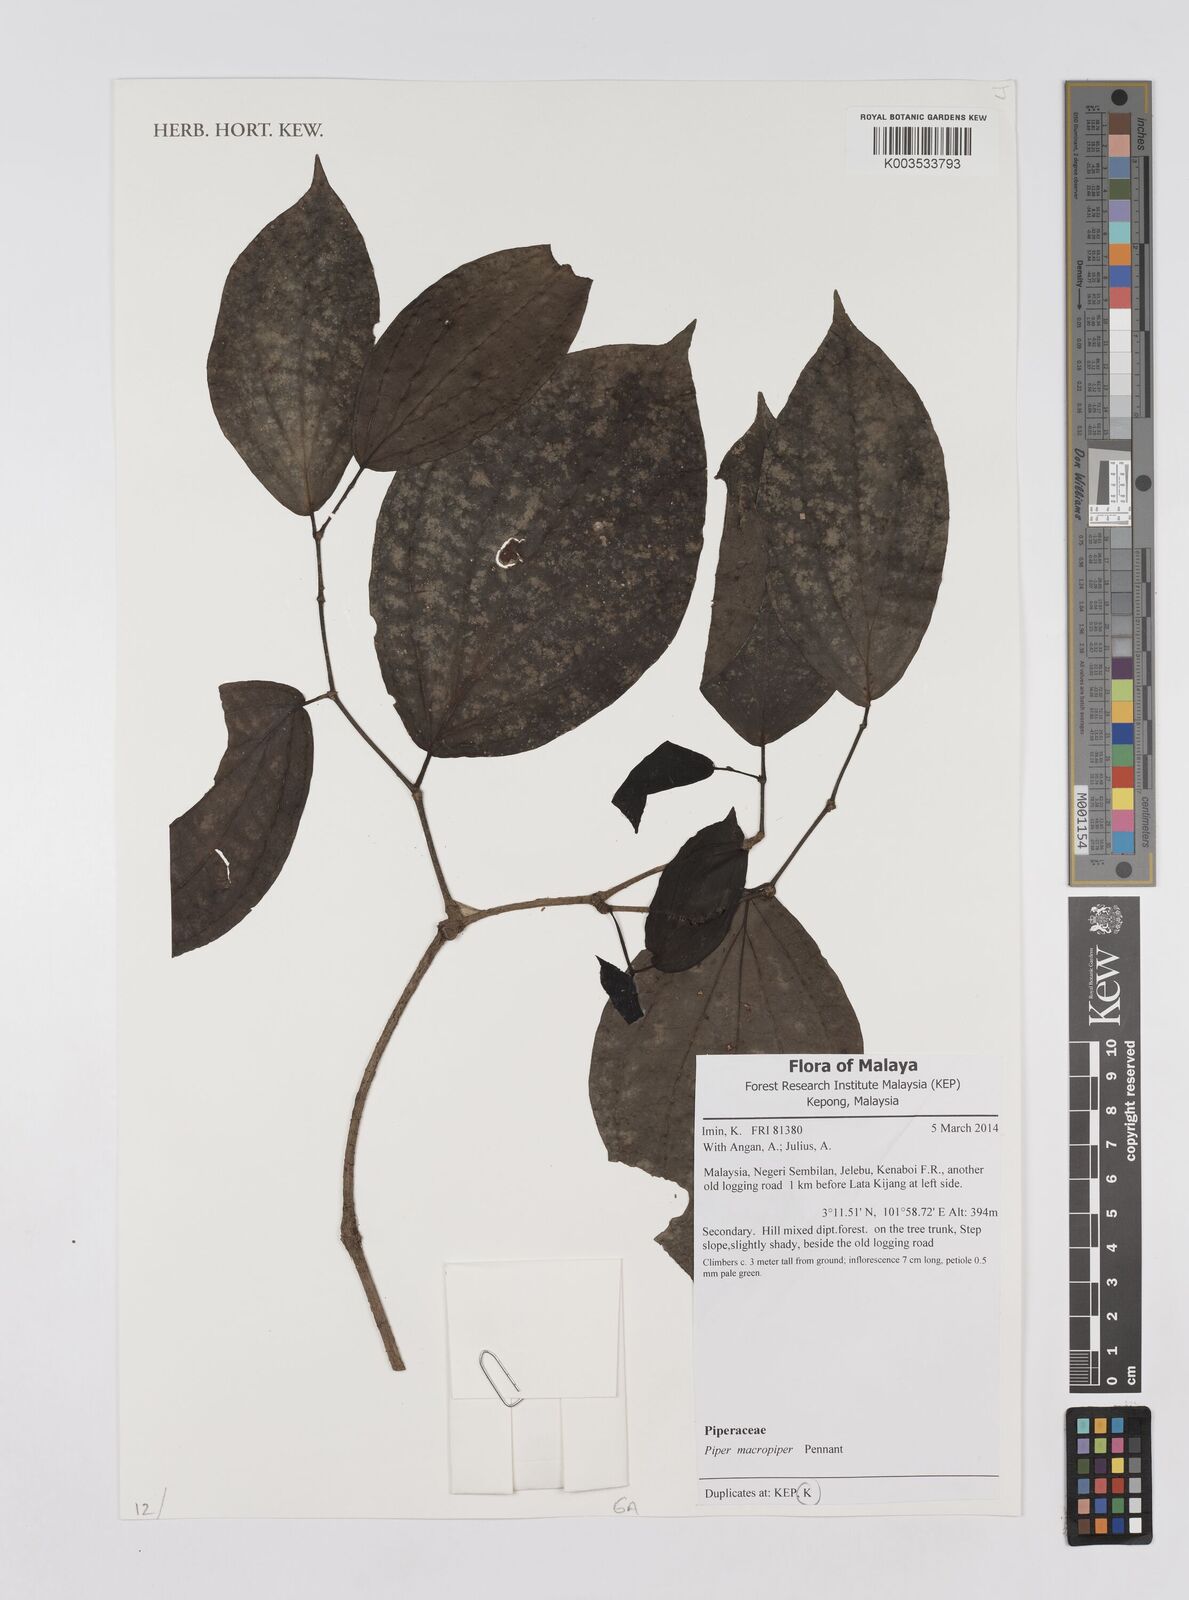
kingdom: Plantae
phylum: Tracheophyta
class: Magnoliopsida
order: Piperales
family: Piperaceae
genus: Piper
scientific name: Piper macropiper
